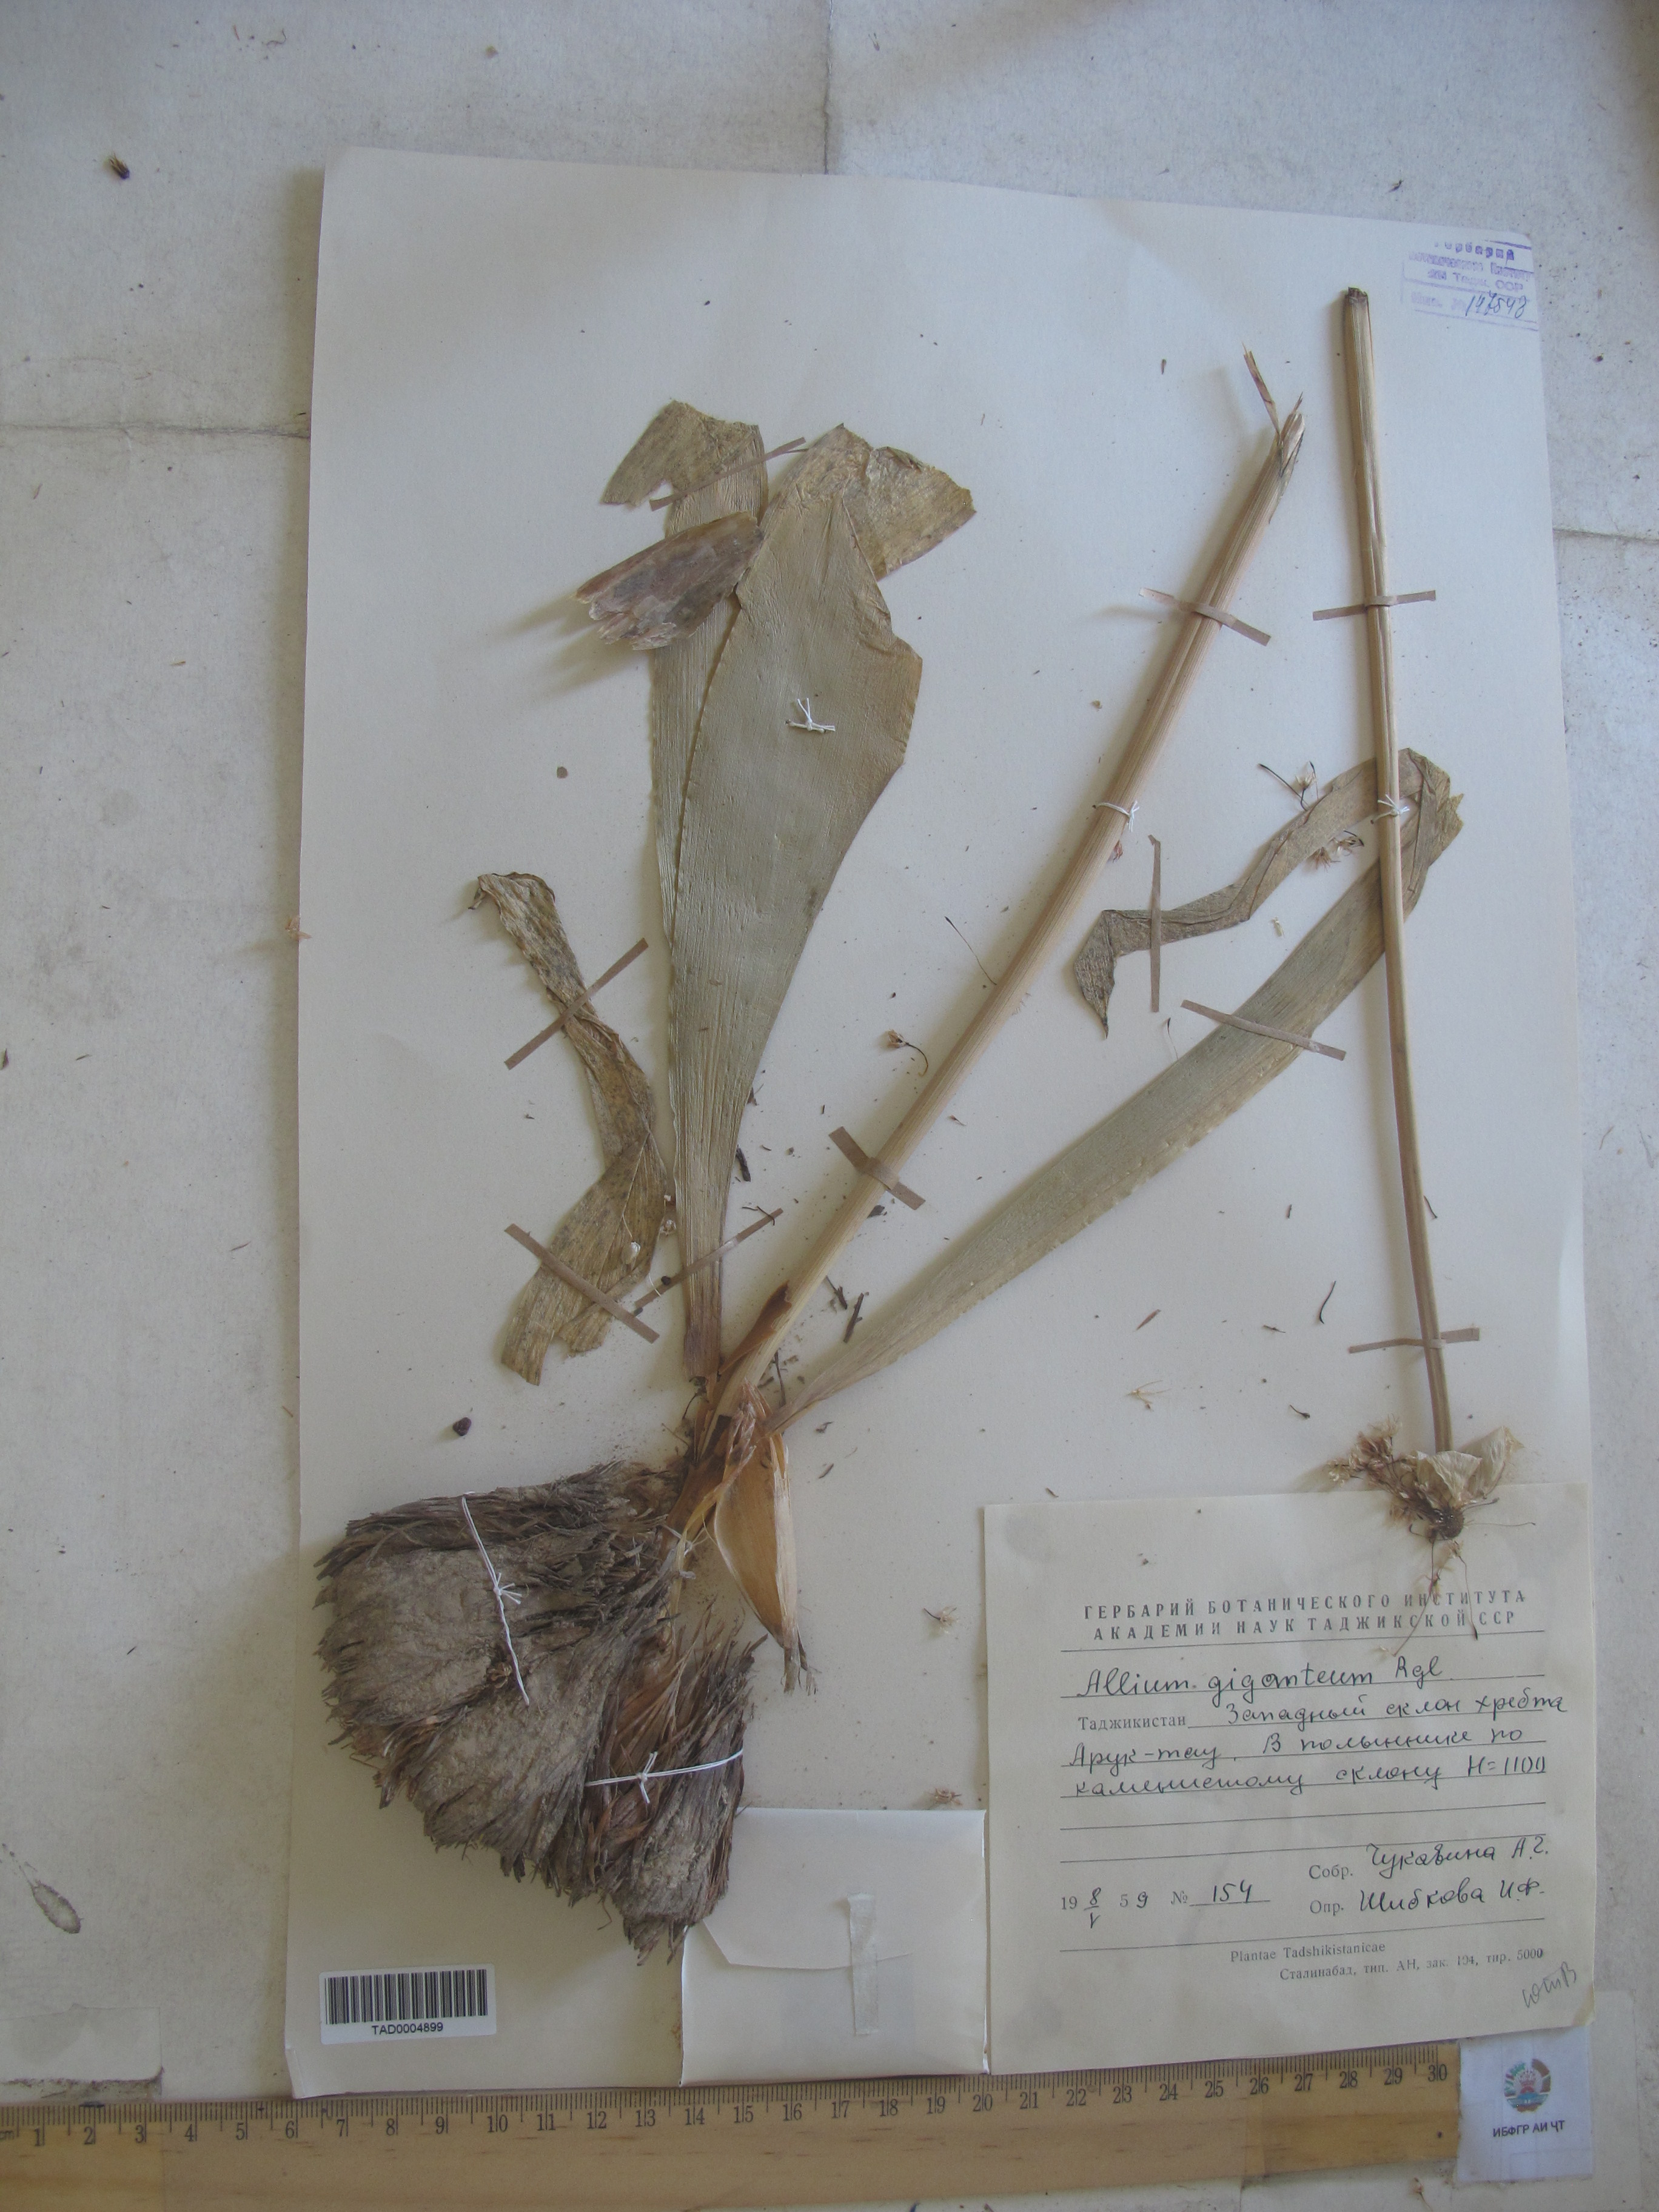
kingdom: Plantae
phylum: Tracheophyta
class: Liliopsida
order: Asparagales
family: Amaryllidaceae
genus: Allium
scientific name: Allium giganteum
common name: Giant onion
